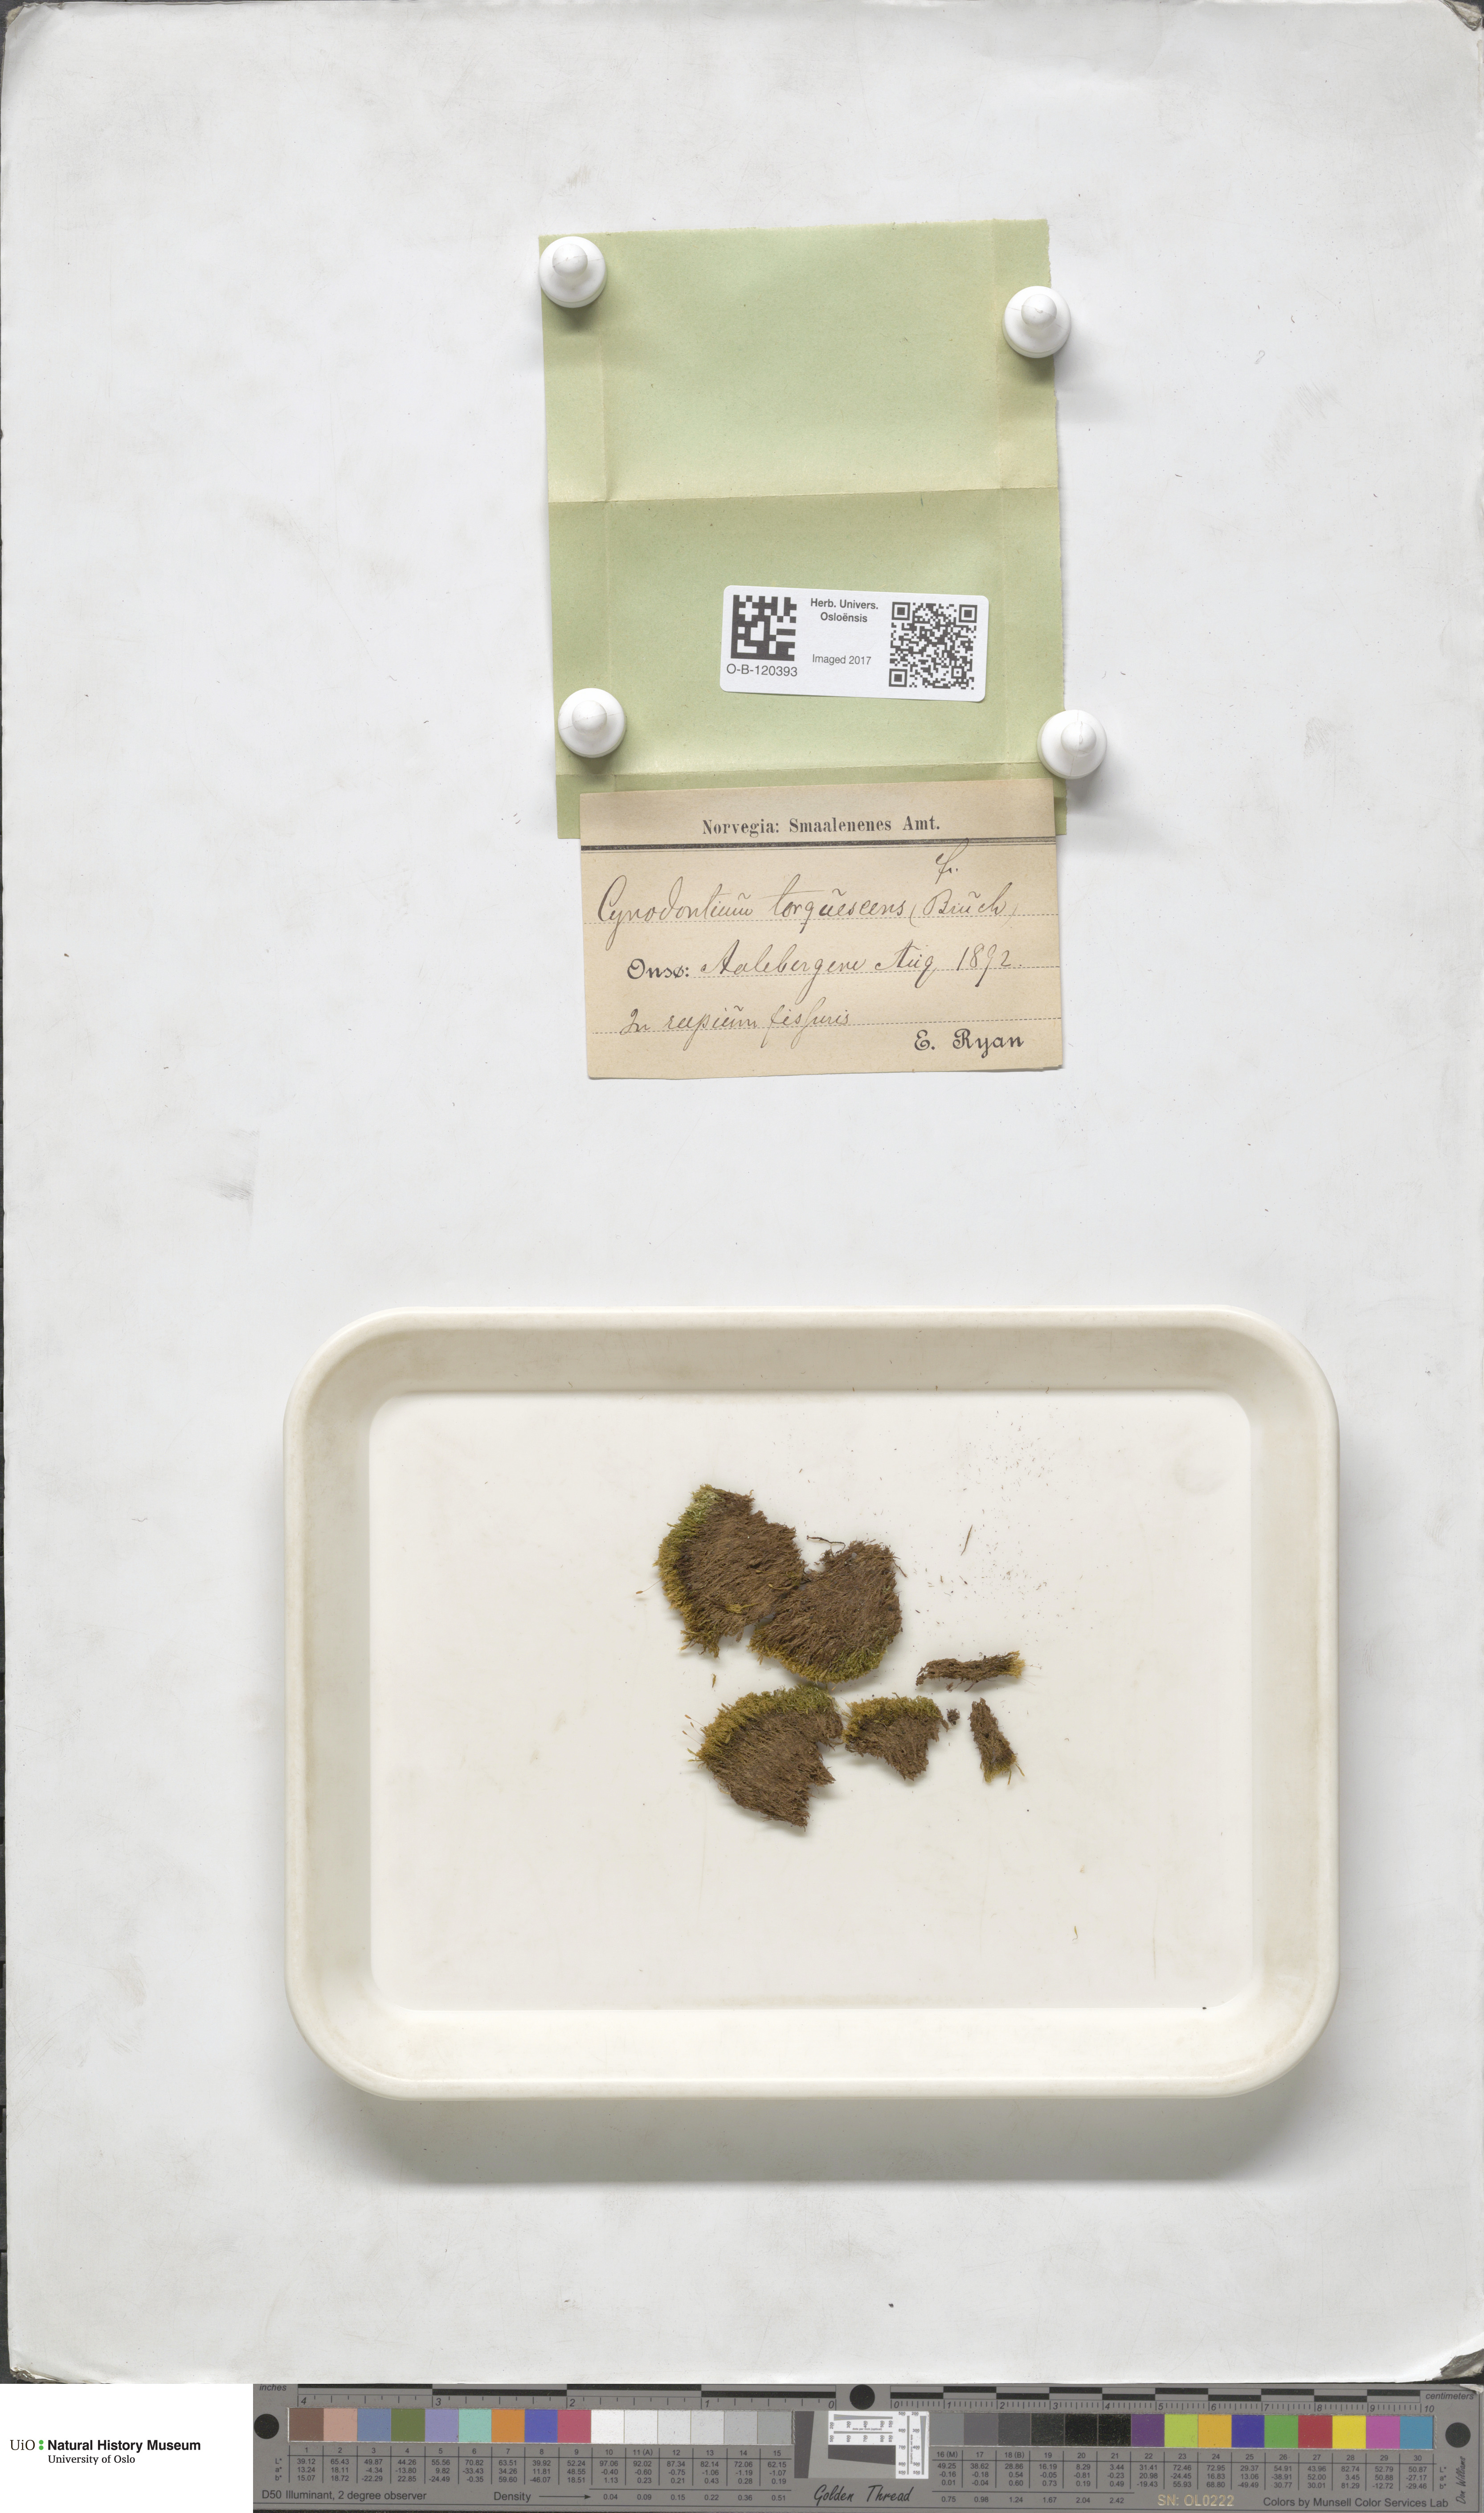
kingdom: Plantae
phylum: Bryophyta
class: Bryopsida
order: Dicranales
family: Rhabdoweisiaceae
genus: Cynodontium
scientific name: Cynodontium tenellum
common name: Delicate dogtooth moss
